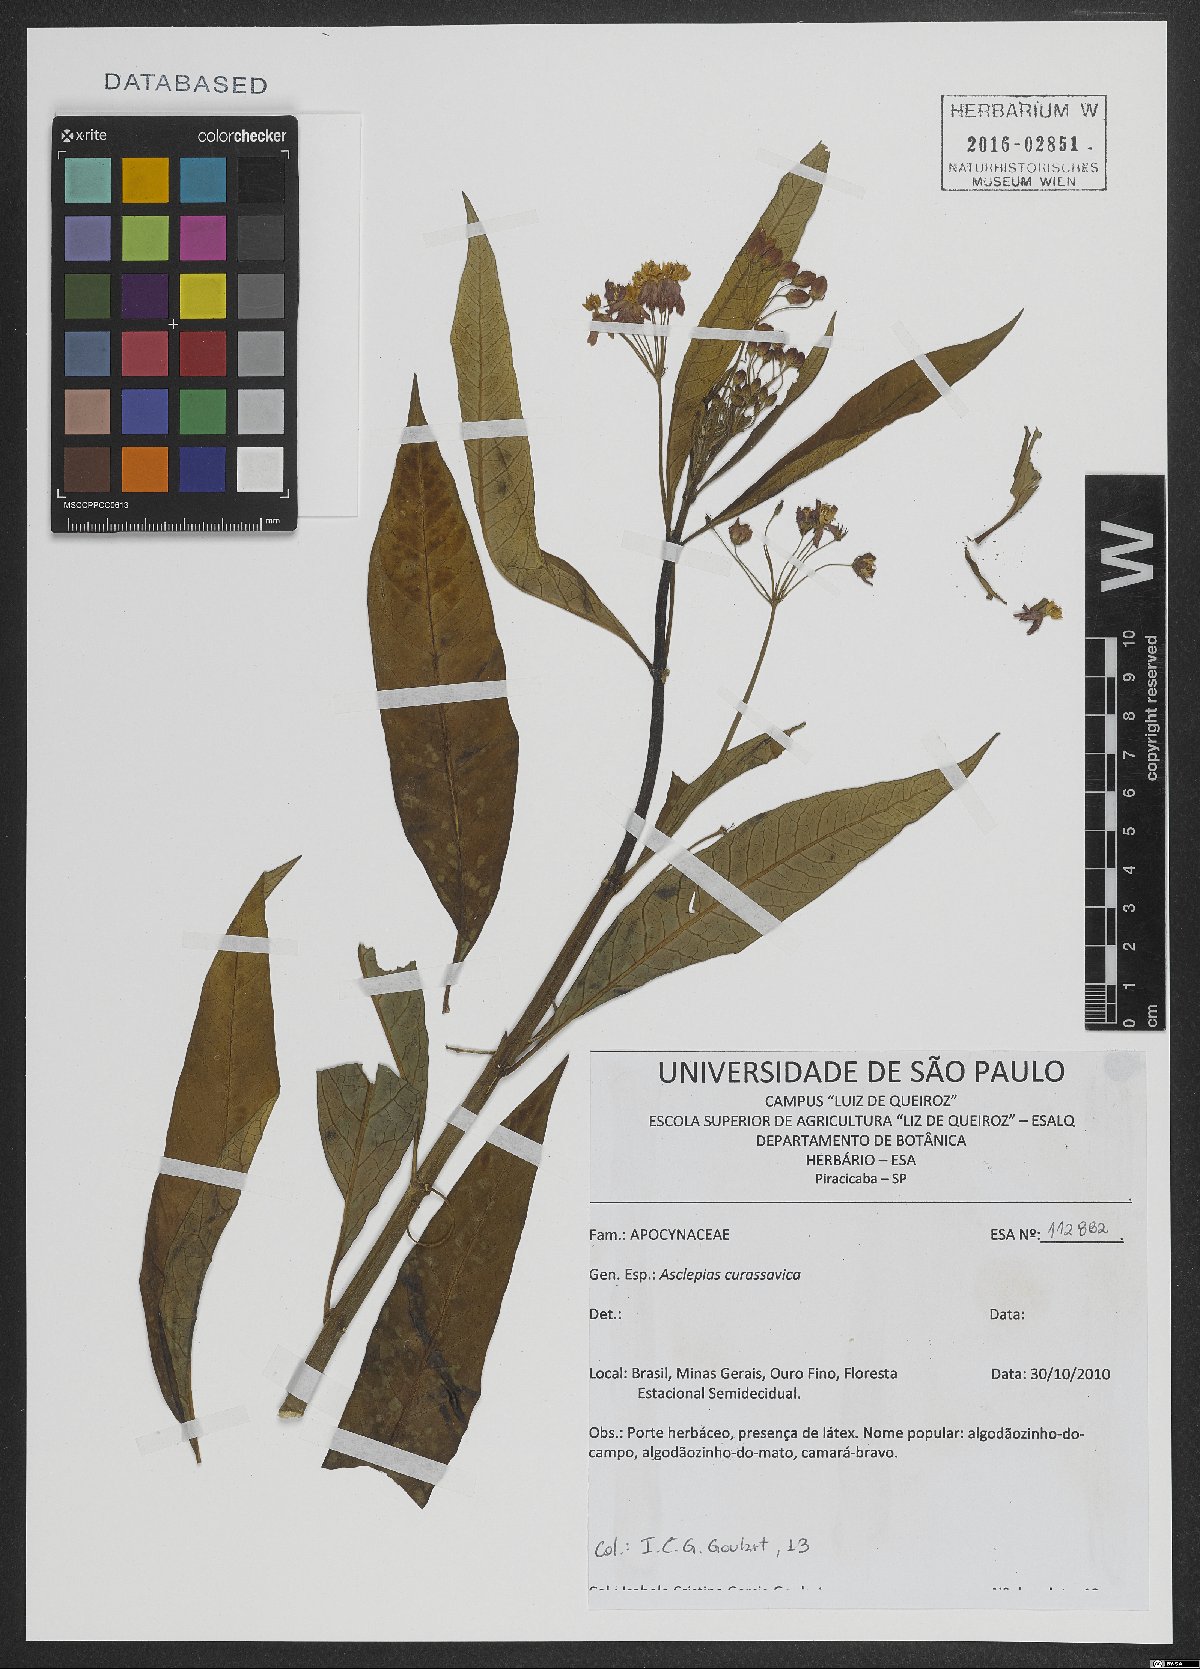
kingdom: Plantae
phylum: Tracheophyta
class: Magnoliopsida
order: Gentianales
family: Apocynaceae
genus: Asclepias
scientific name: Asclepias curassavica
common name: Bloodflower
